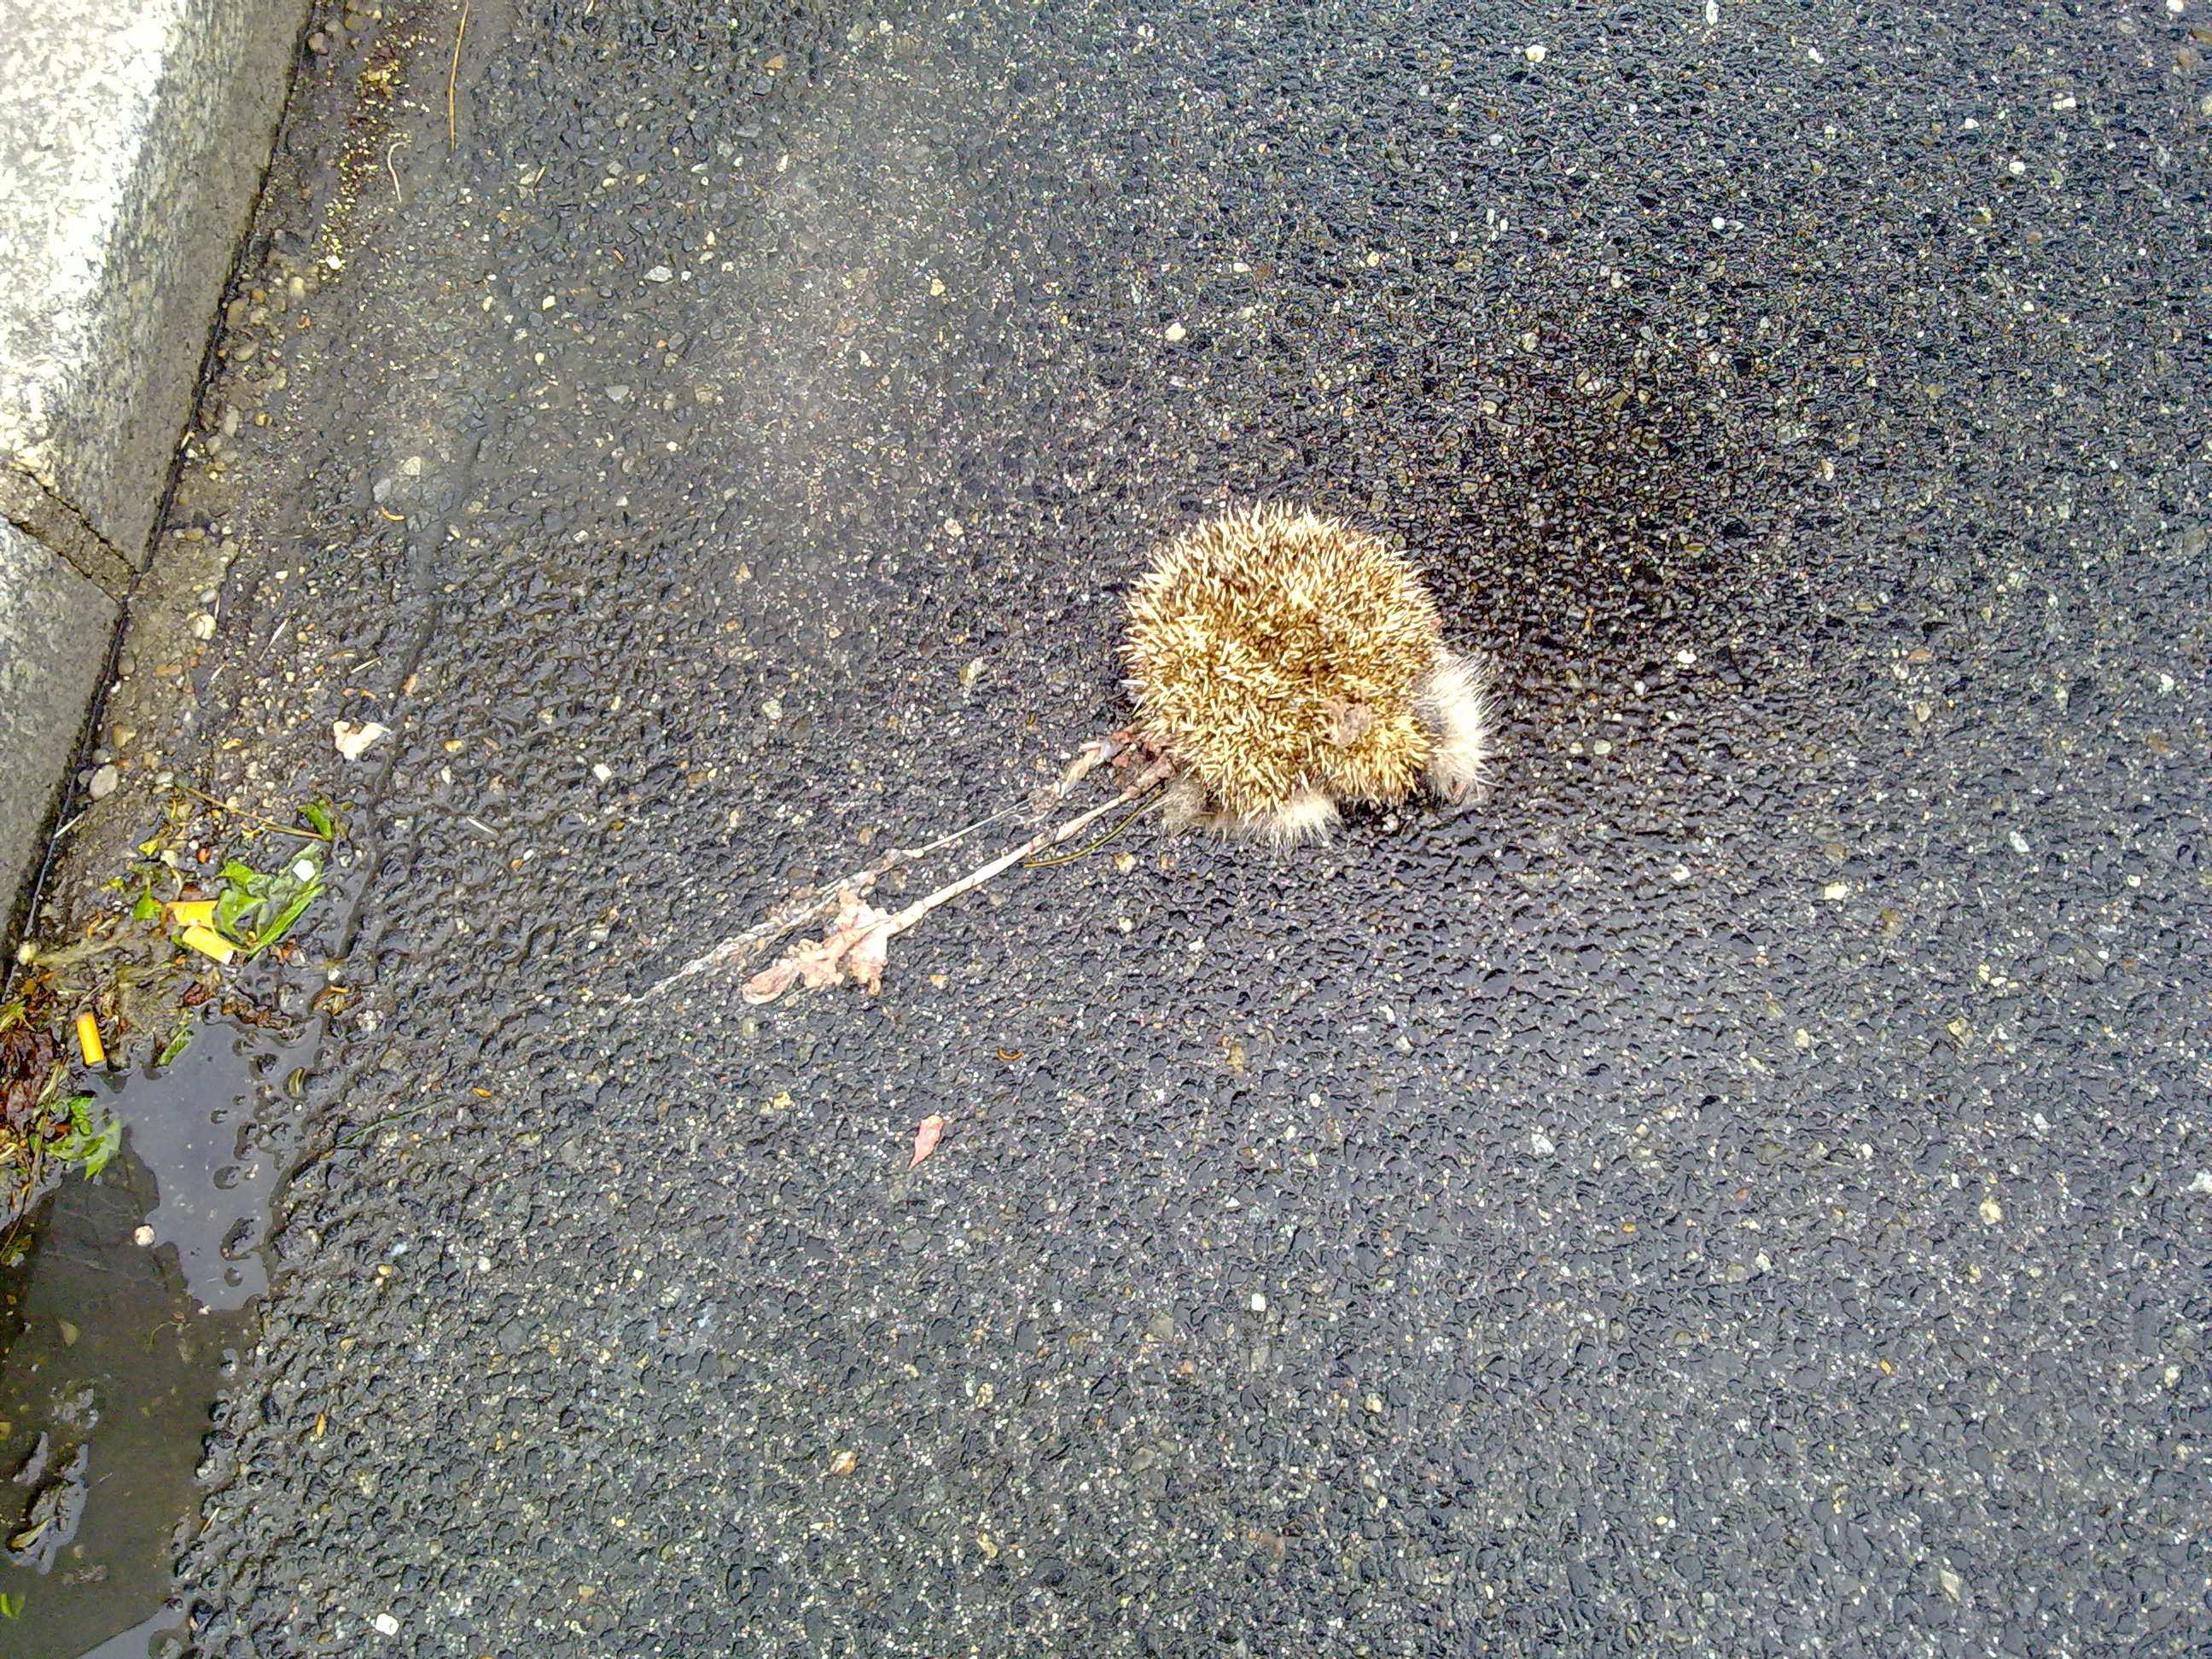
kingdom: Animalia
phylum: Chordata
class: Mammalia
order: Erinaceomorpha
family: Erinaceidae
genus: Erinaceus
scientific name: Erinaceus
